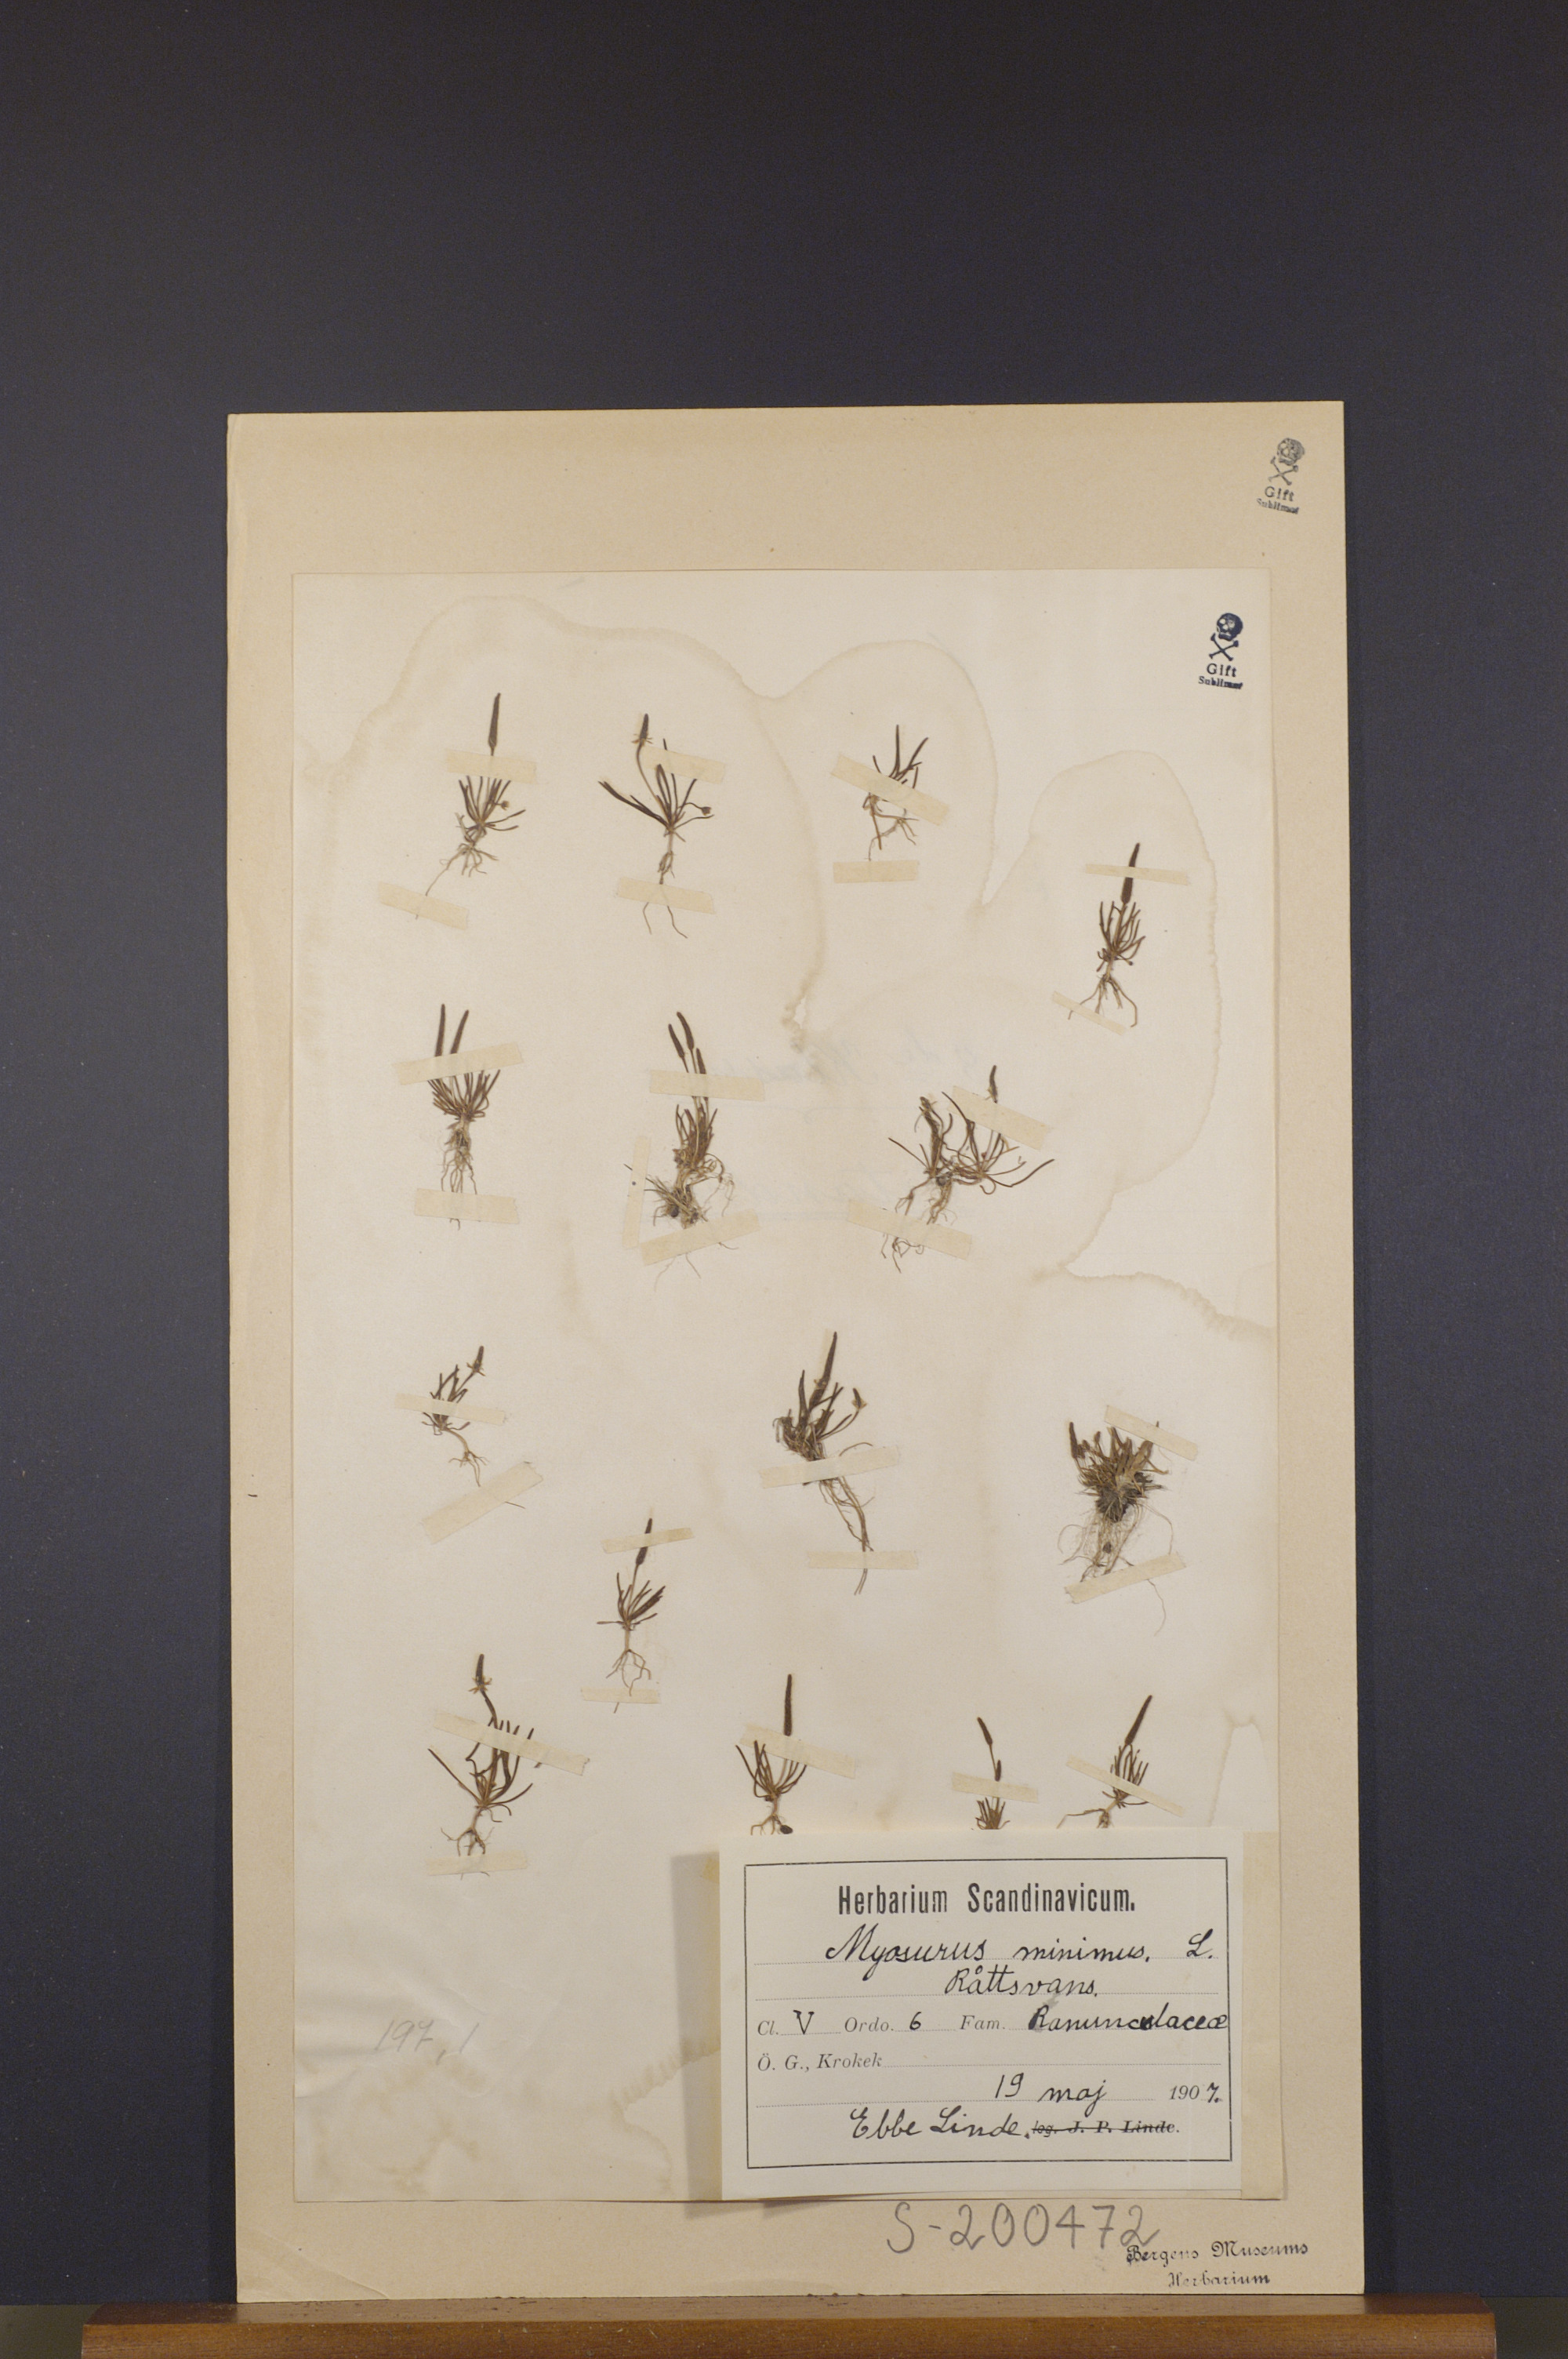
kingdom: Plantae
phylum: Tracheophyta
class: Magnoliopsida
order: Ranunculales
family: Ranunculaceae
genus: Myosurus
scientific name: Myosurus minimus
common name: Mousetail
